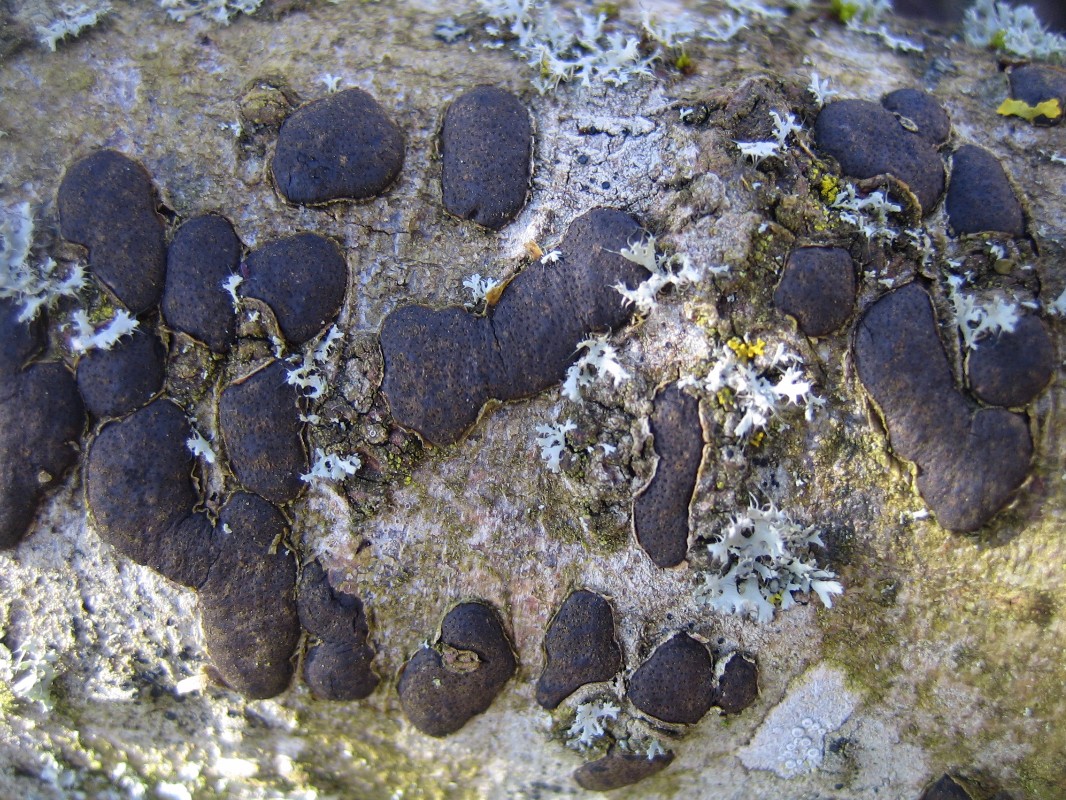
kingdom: Fungi
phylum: Ascomycota
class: Sordariomycetes
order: Xylariales
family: Diatrypaceae
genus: Diatrype
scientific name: Diatrype bullata
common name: pile-kulskorpe
